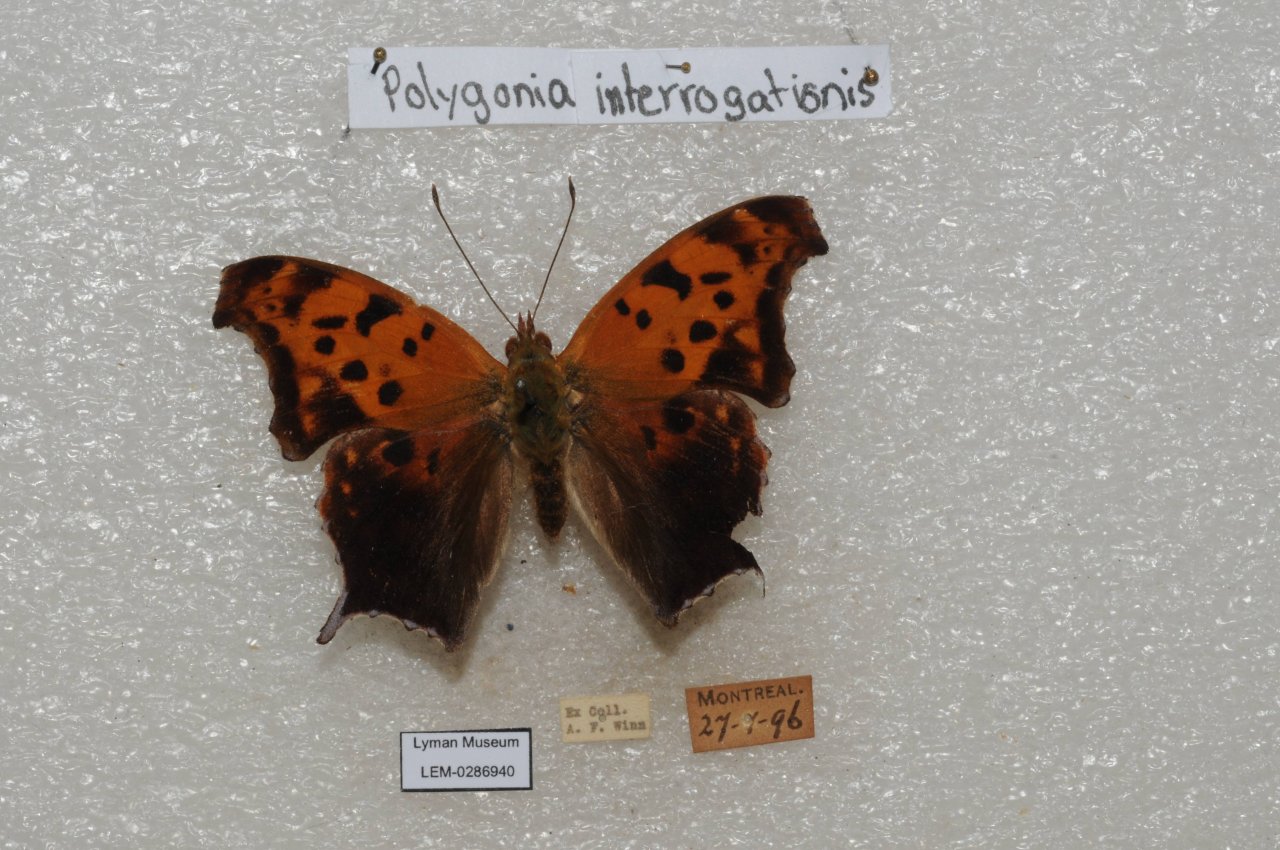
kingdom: Animalia
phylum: Arthropoda
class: Insecta
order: Lepidoptera
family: Nymphalidae
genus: Polygonia
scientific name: Polygonia interrogationis
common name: Question Mark
